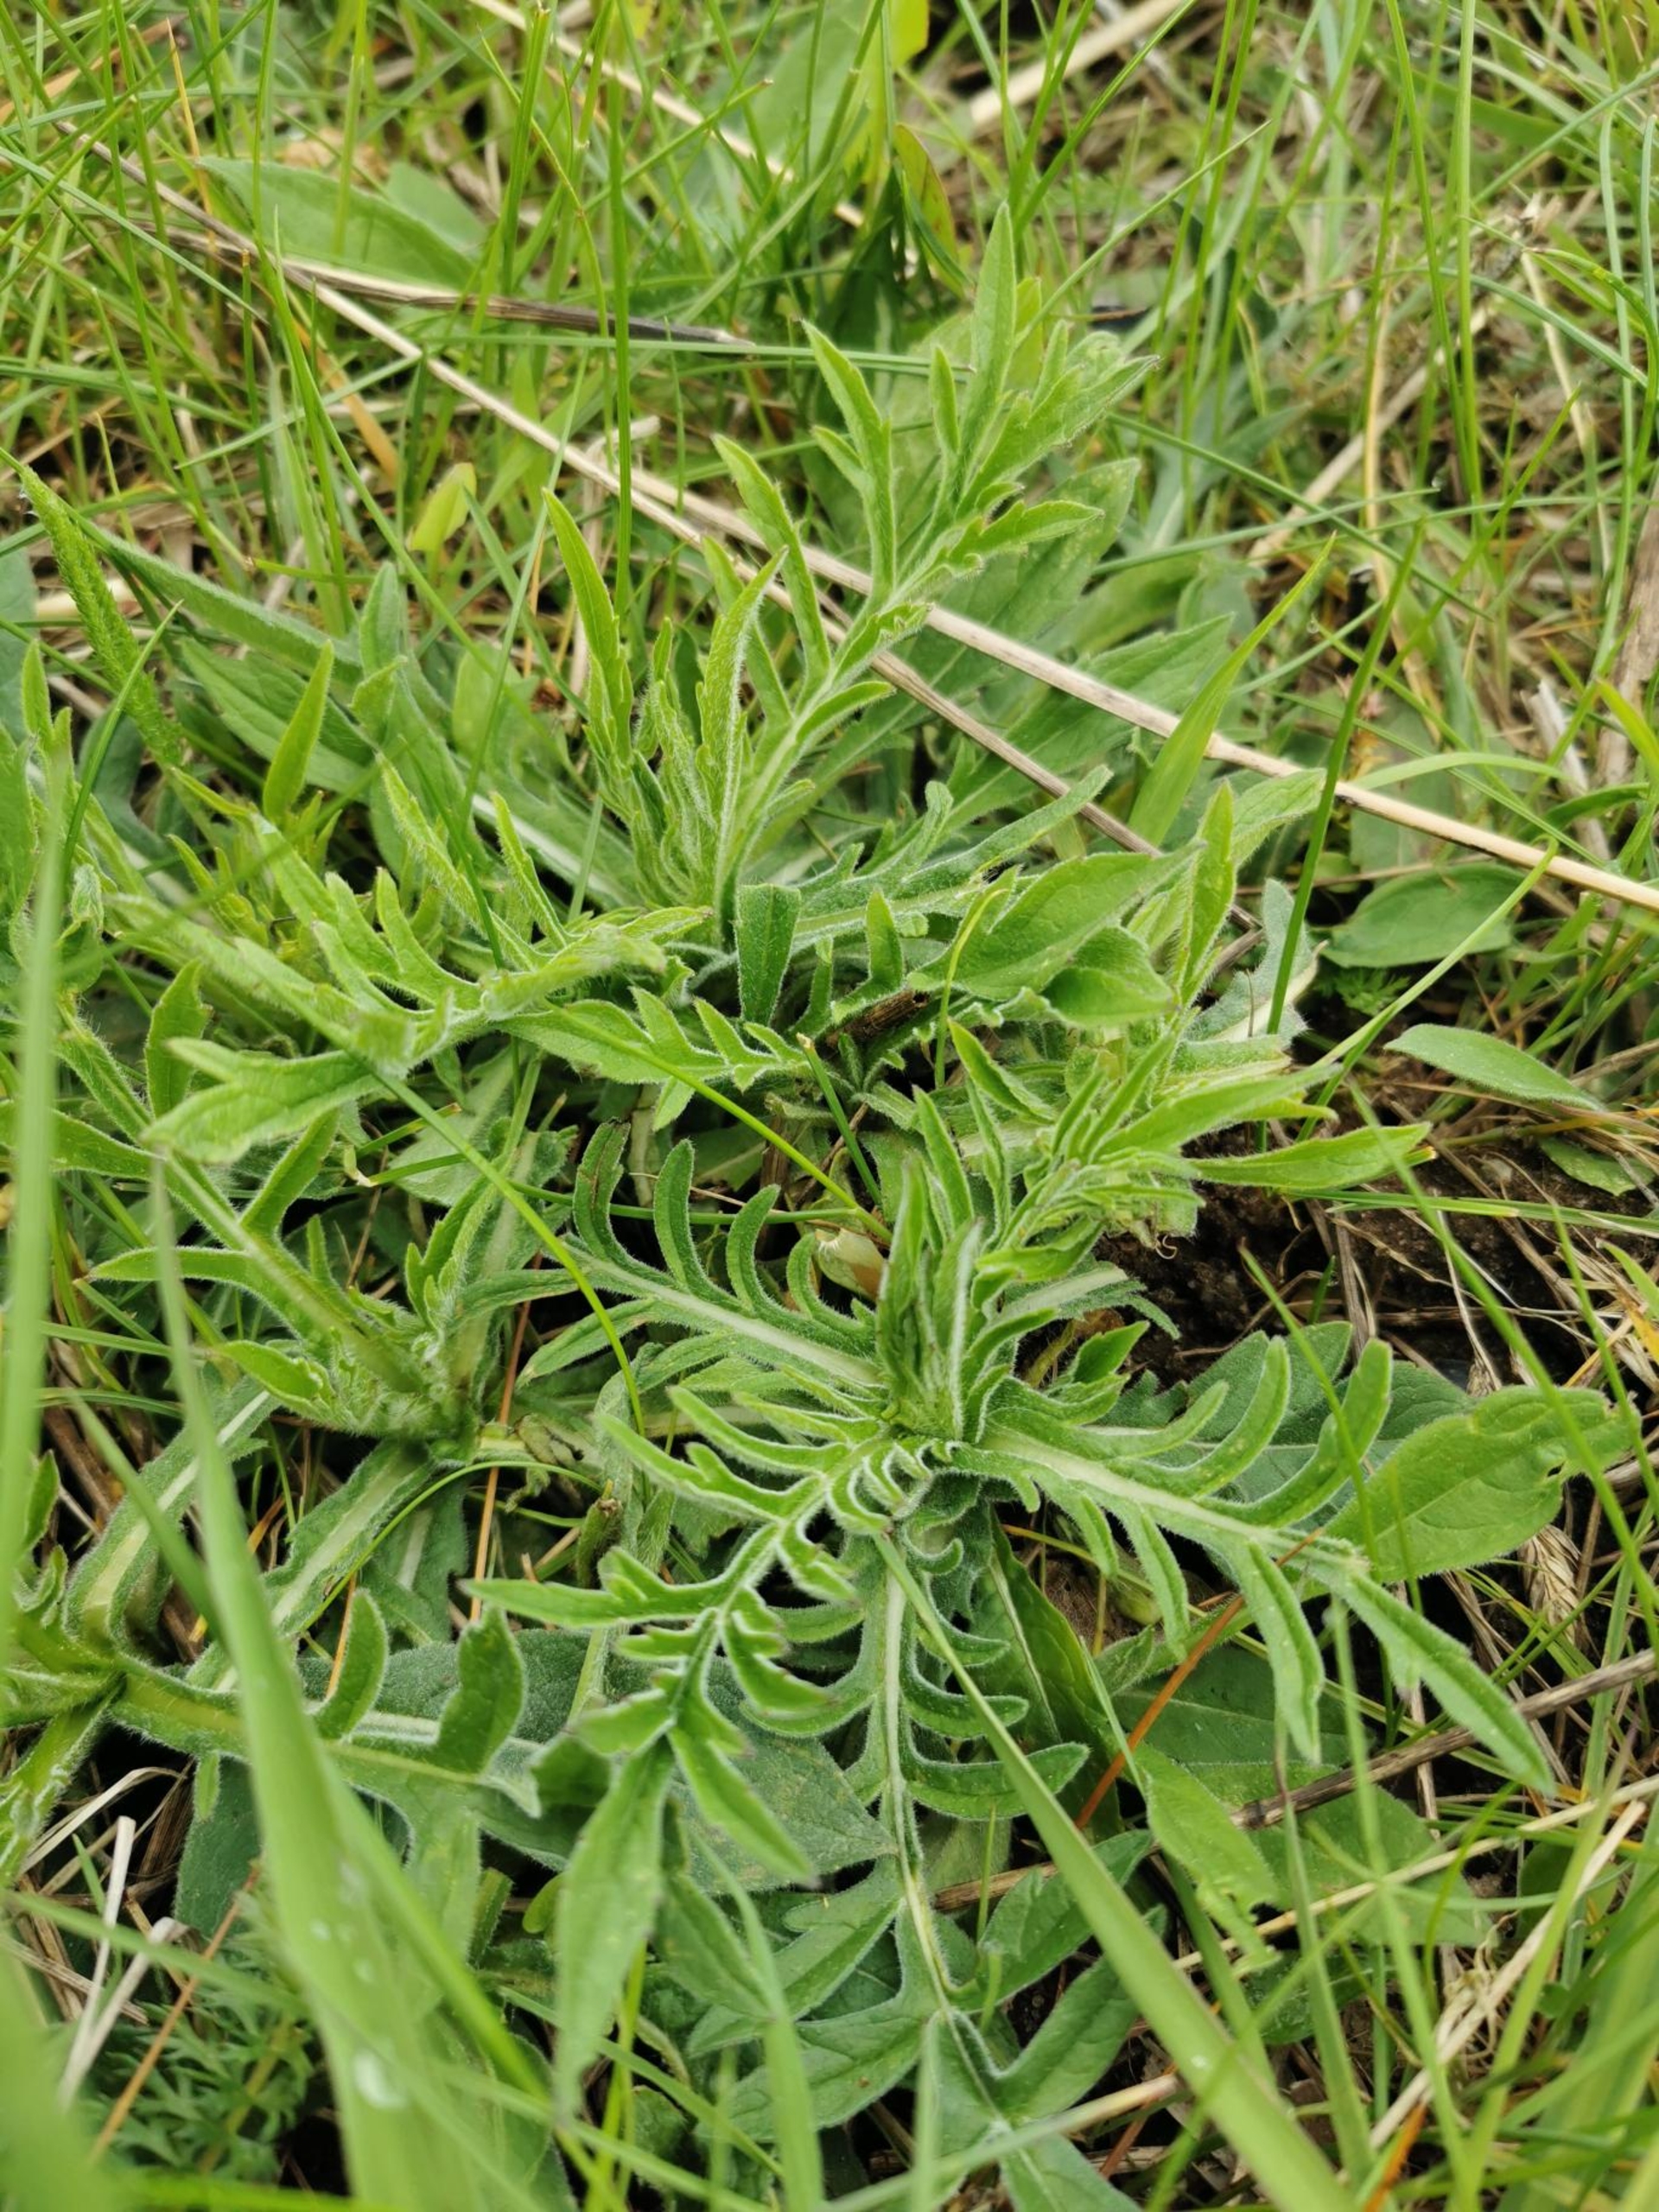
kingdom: Plantae
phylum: Tracheophyta
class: Magnoliopsida
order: Dipsacales
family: Caprifoliaceae
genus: Knautia
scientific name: Knautia arvensis
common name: Blåhat
